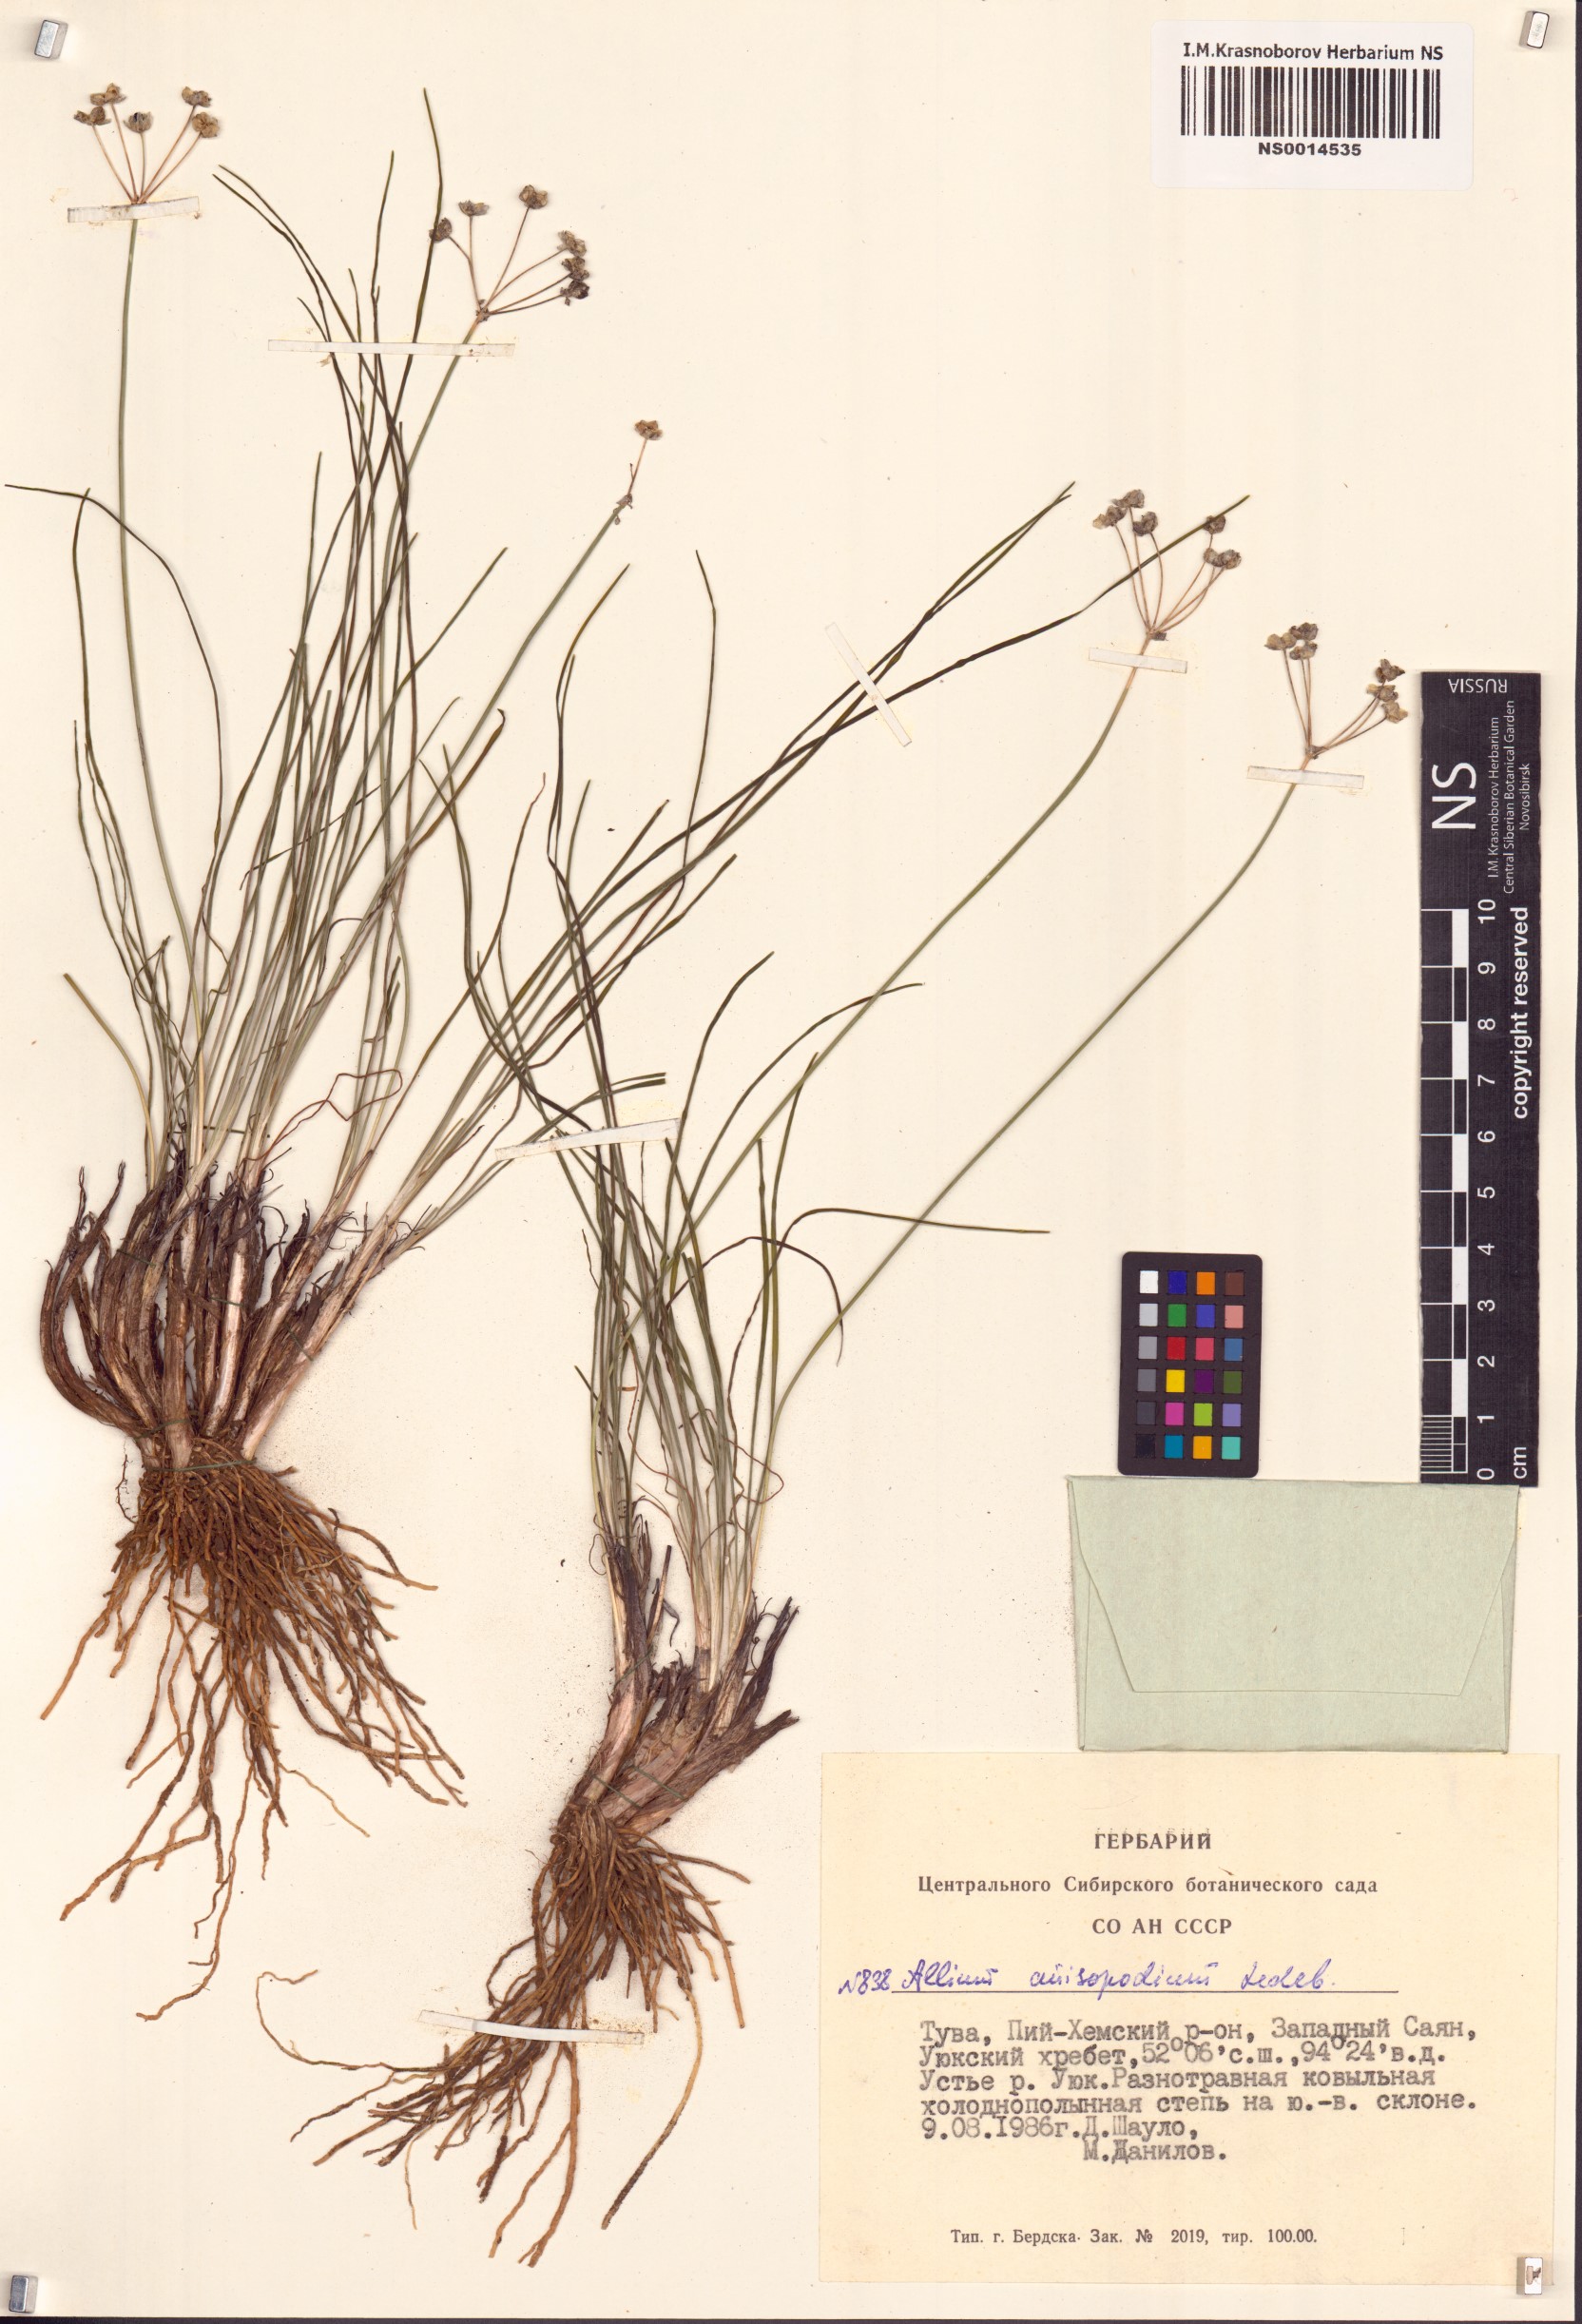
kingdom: Plantae
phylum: Tracheophyta
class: Liliopsida
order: Asparagales
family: Amaryllidaceae
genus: Allium
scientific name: Allium anisopodium
